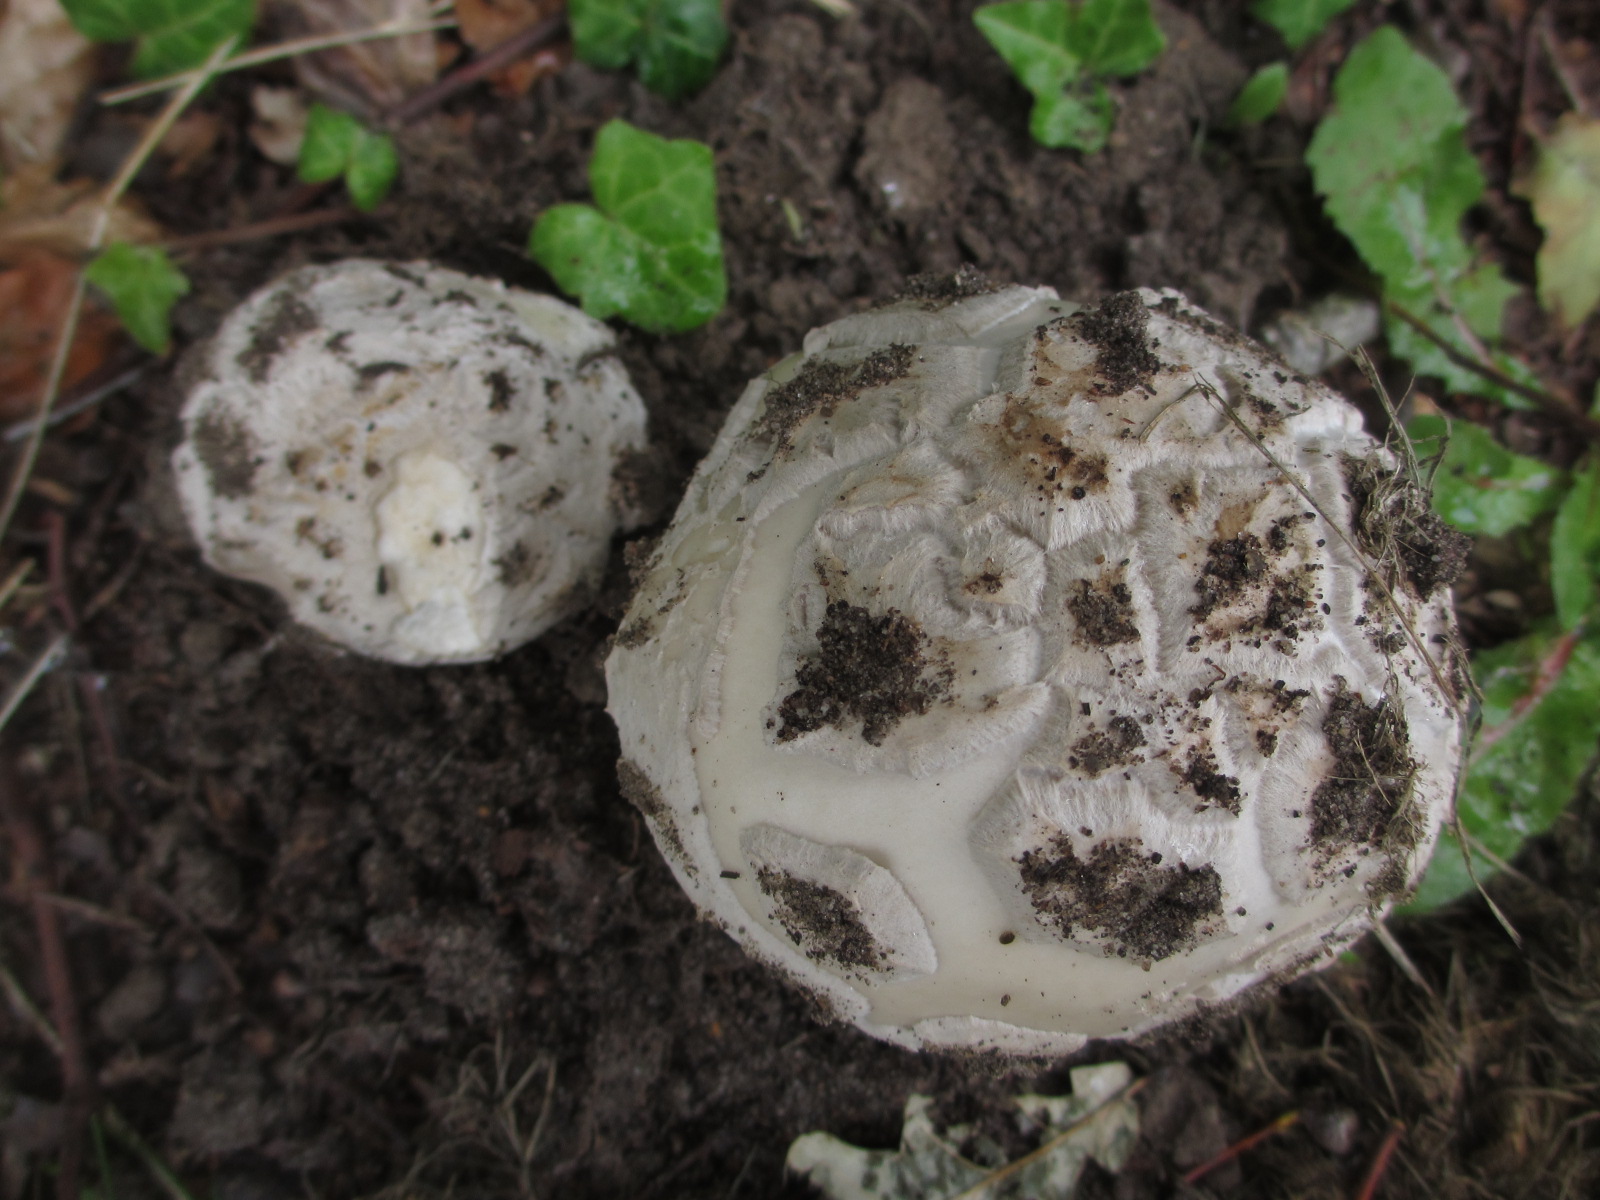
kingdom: Fungi
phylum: Basidiomycota
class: Agaricomycetes
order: Agaricales
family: Amanitaceae
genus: Amanita
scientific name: Amanita
